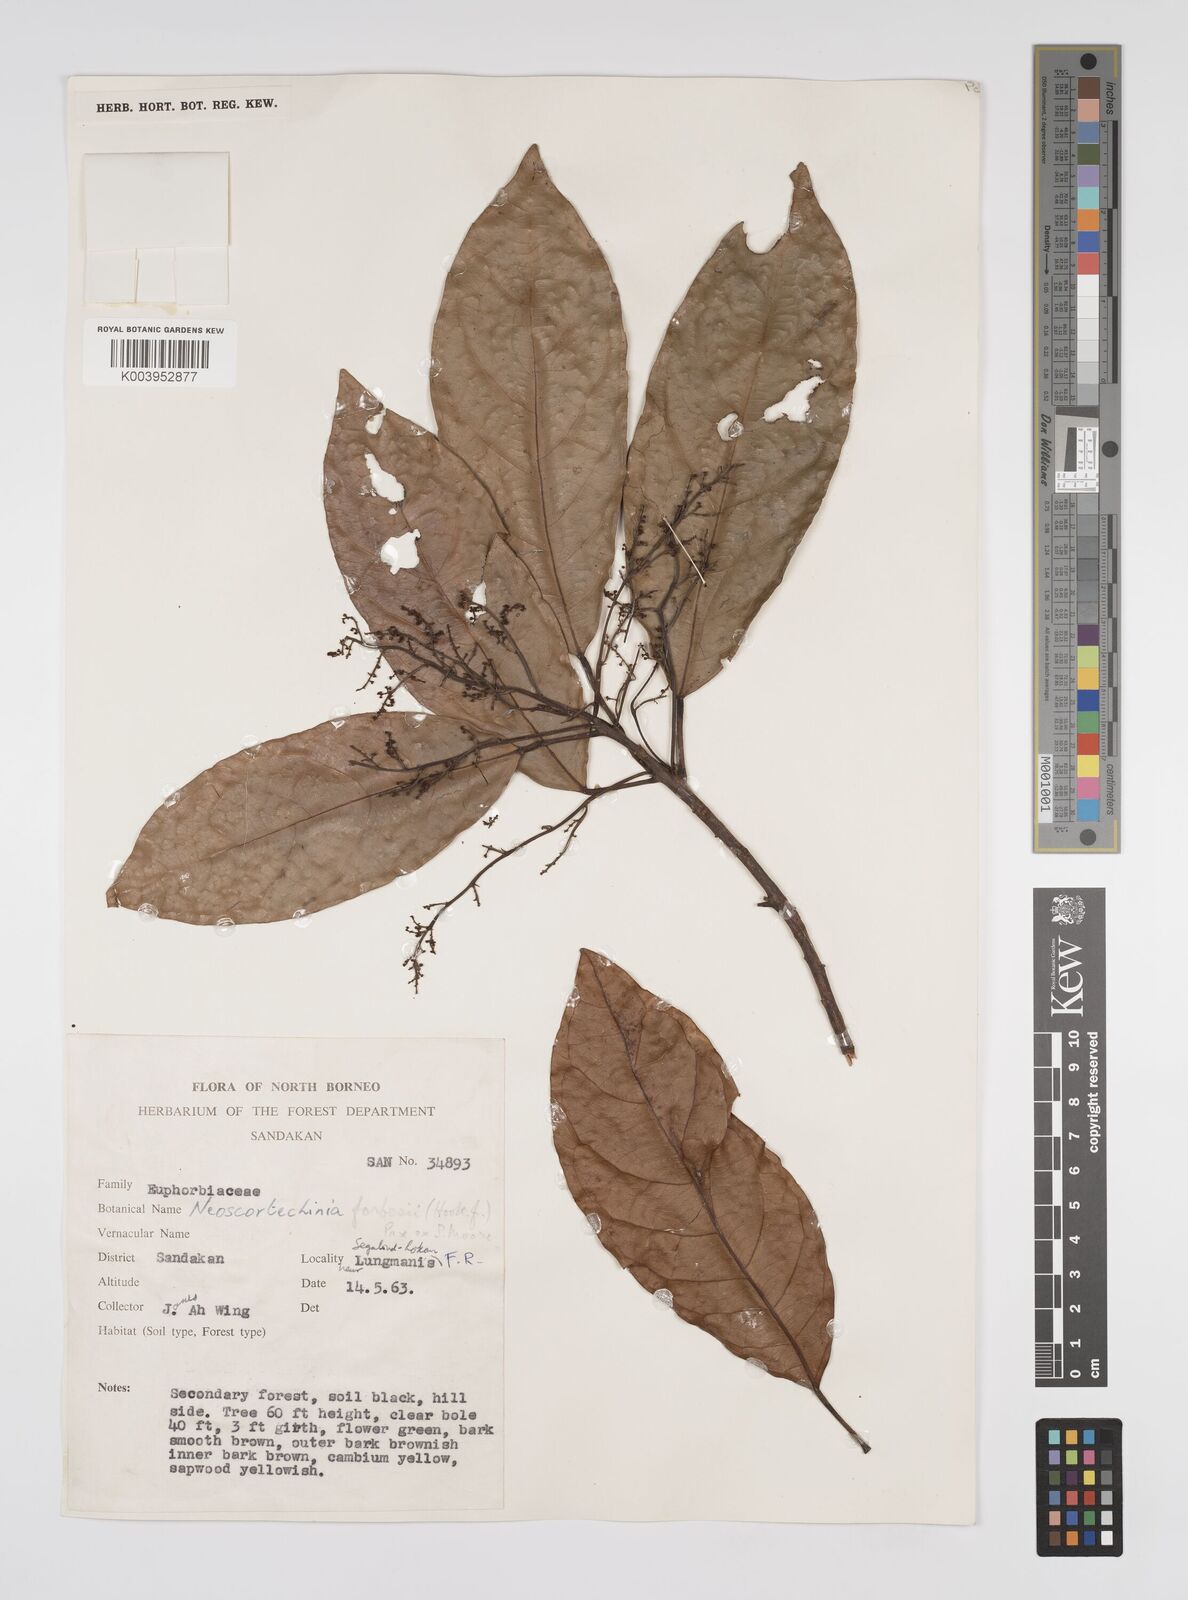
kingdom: Plantae
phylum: Tracheophyta
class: Magnoliopsida
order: Malpighiales
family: Euphorbiaceae
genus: Neoscortechinia
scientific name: Neoscortechinia philippinensis
